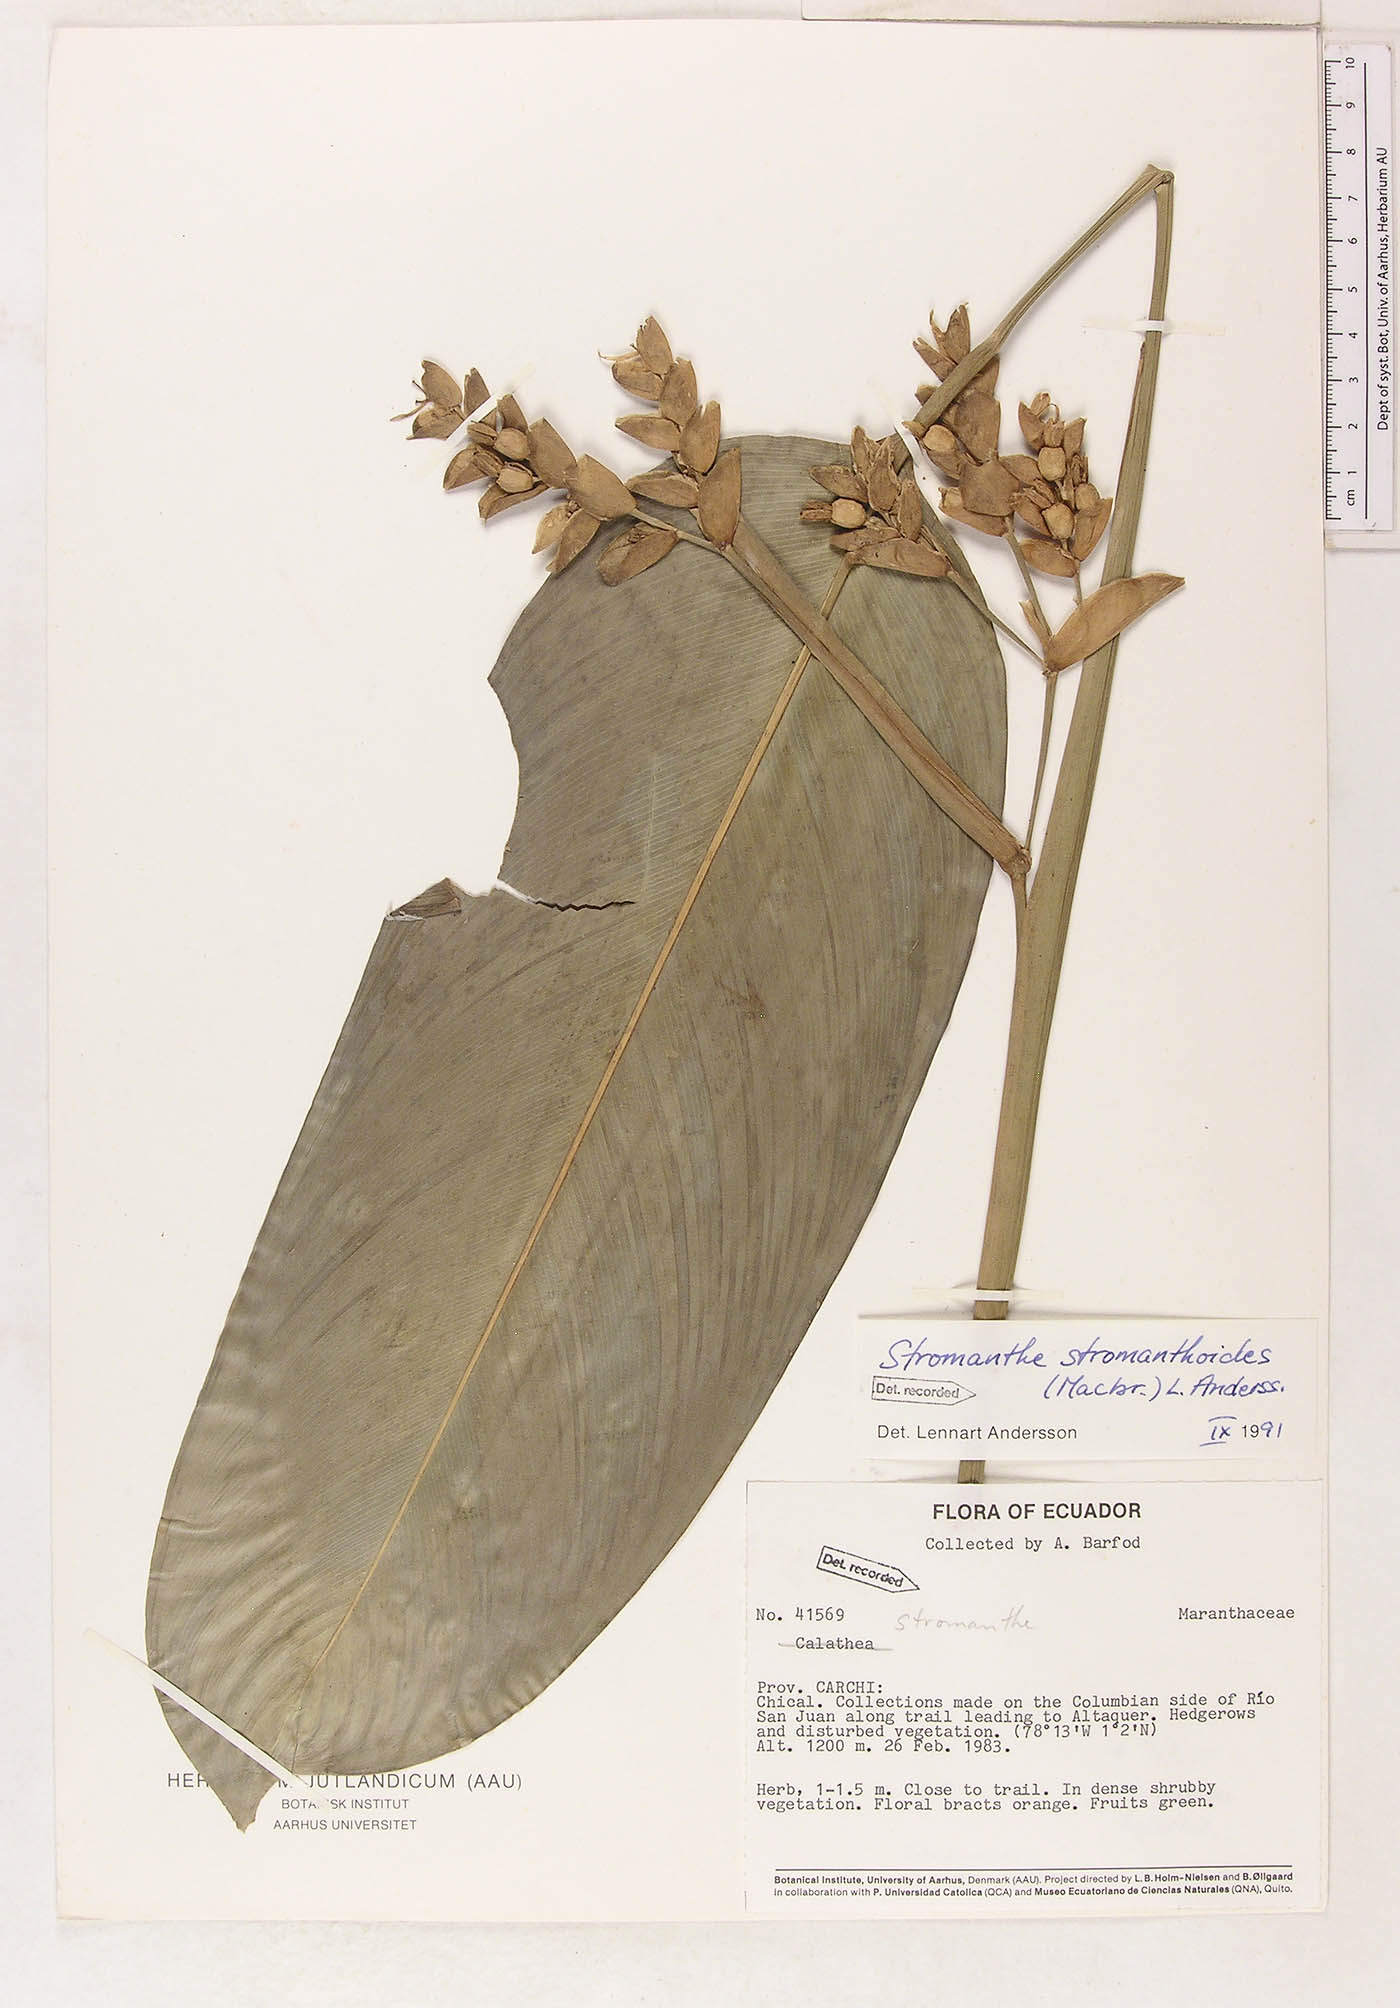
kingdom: Plantae
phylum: Tracheophyta
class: Liliopsida
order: Zingiberales
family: Marantaceae
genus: Stromanthe
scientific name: Stromanthe stromanthoides
